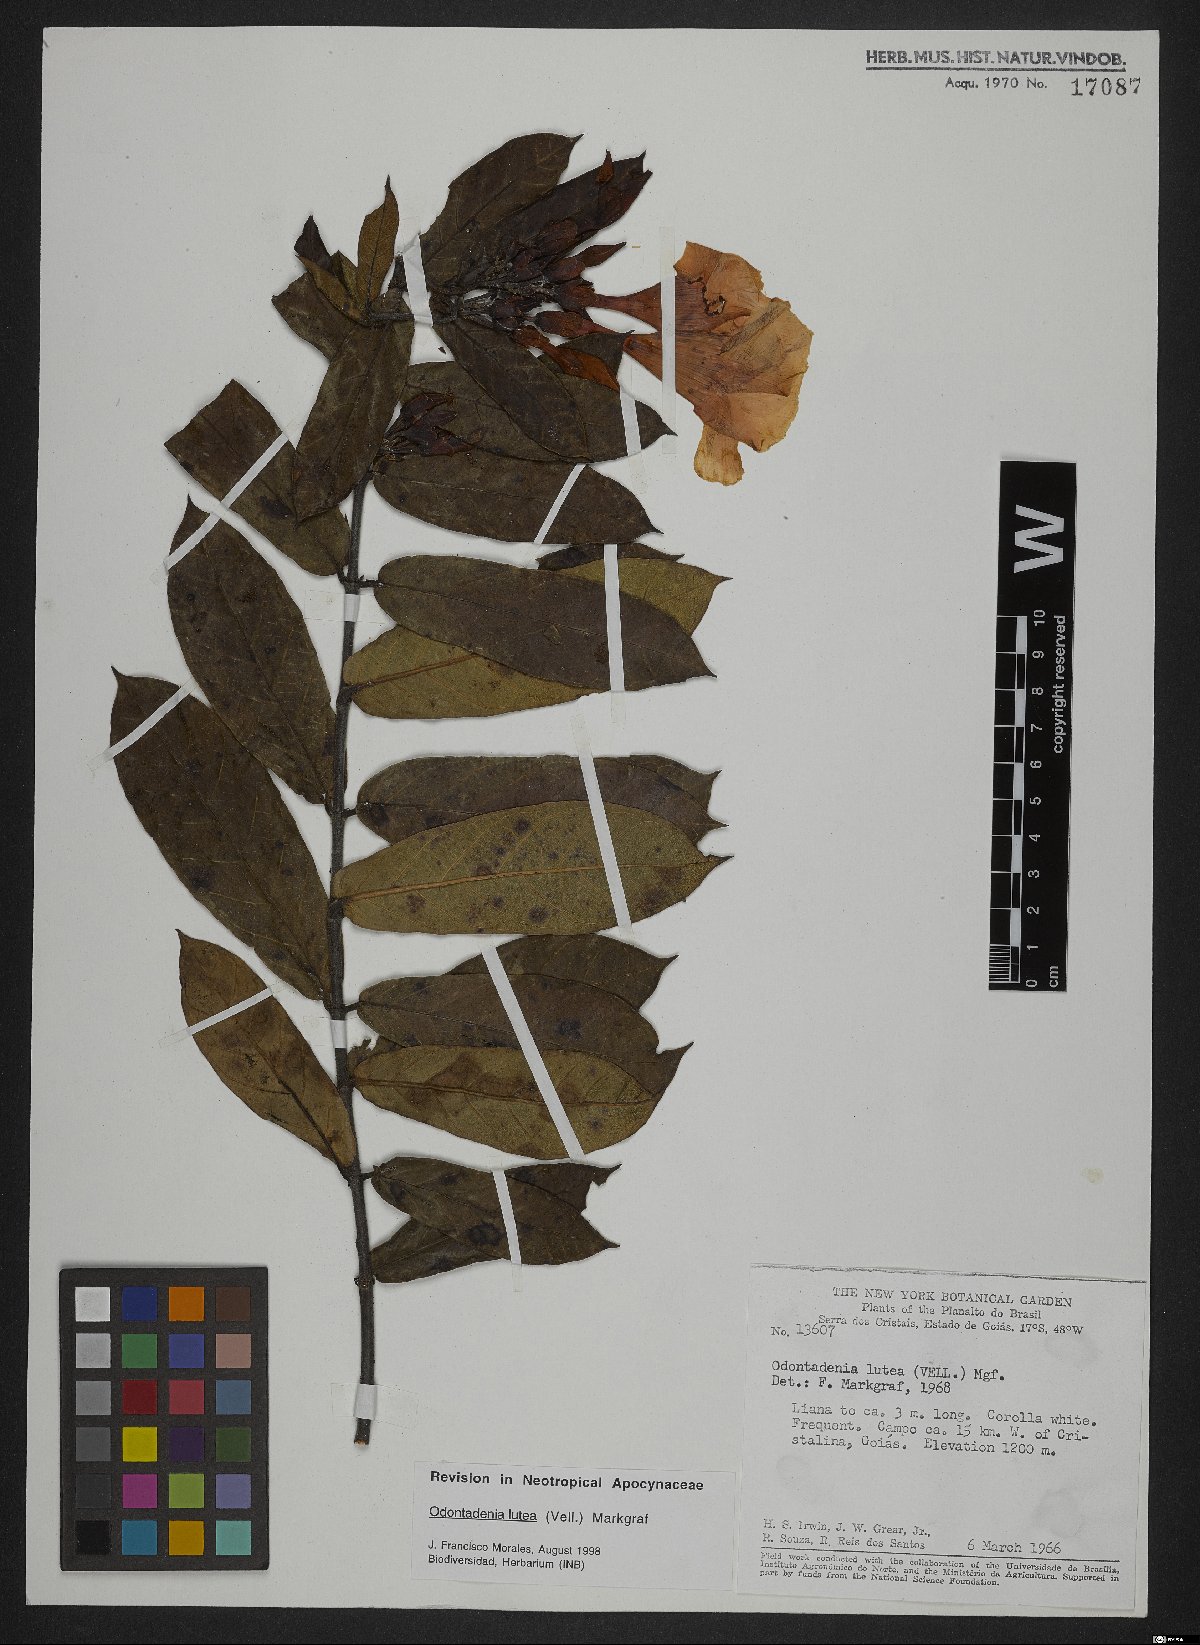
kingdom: Plantae
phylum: Tracheophyta
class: Magnoliopsida
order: Gentianales
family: Apocynaceae
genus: Odontadenia
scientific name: Odontadenia lutea
